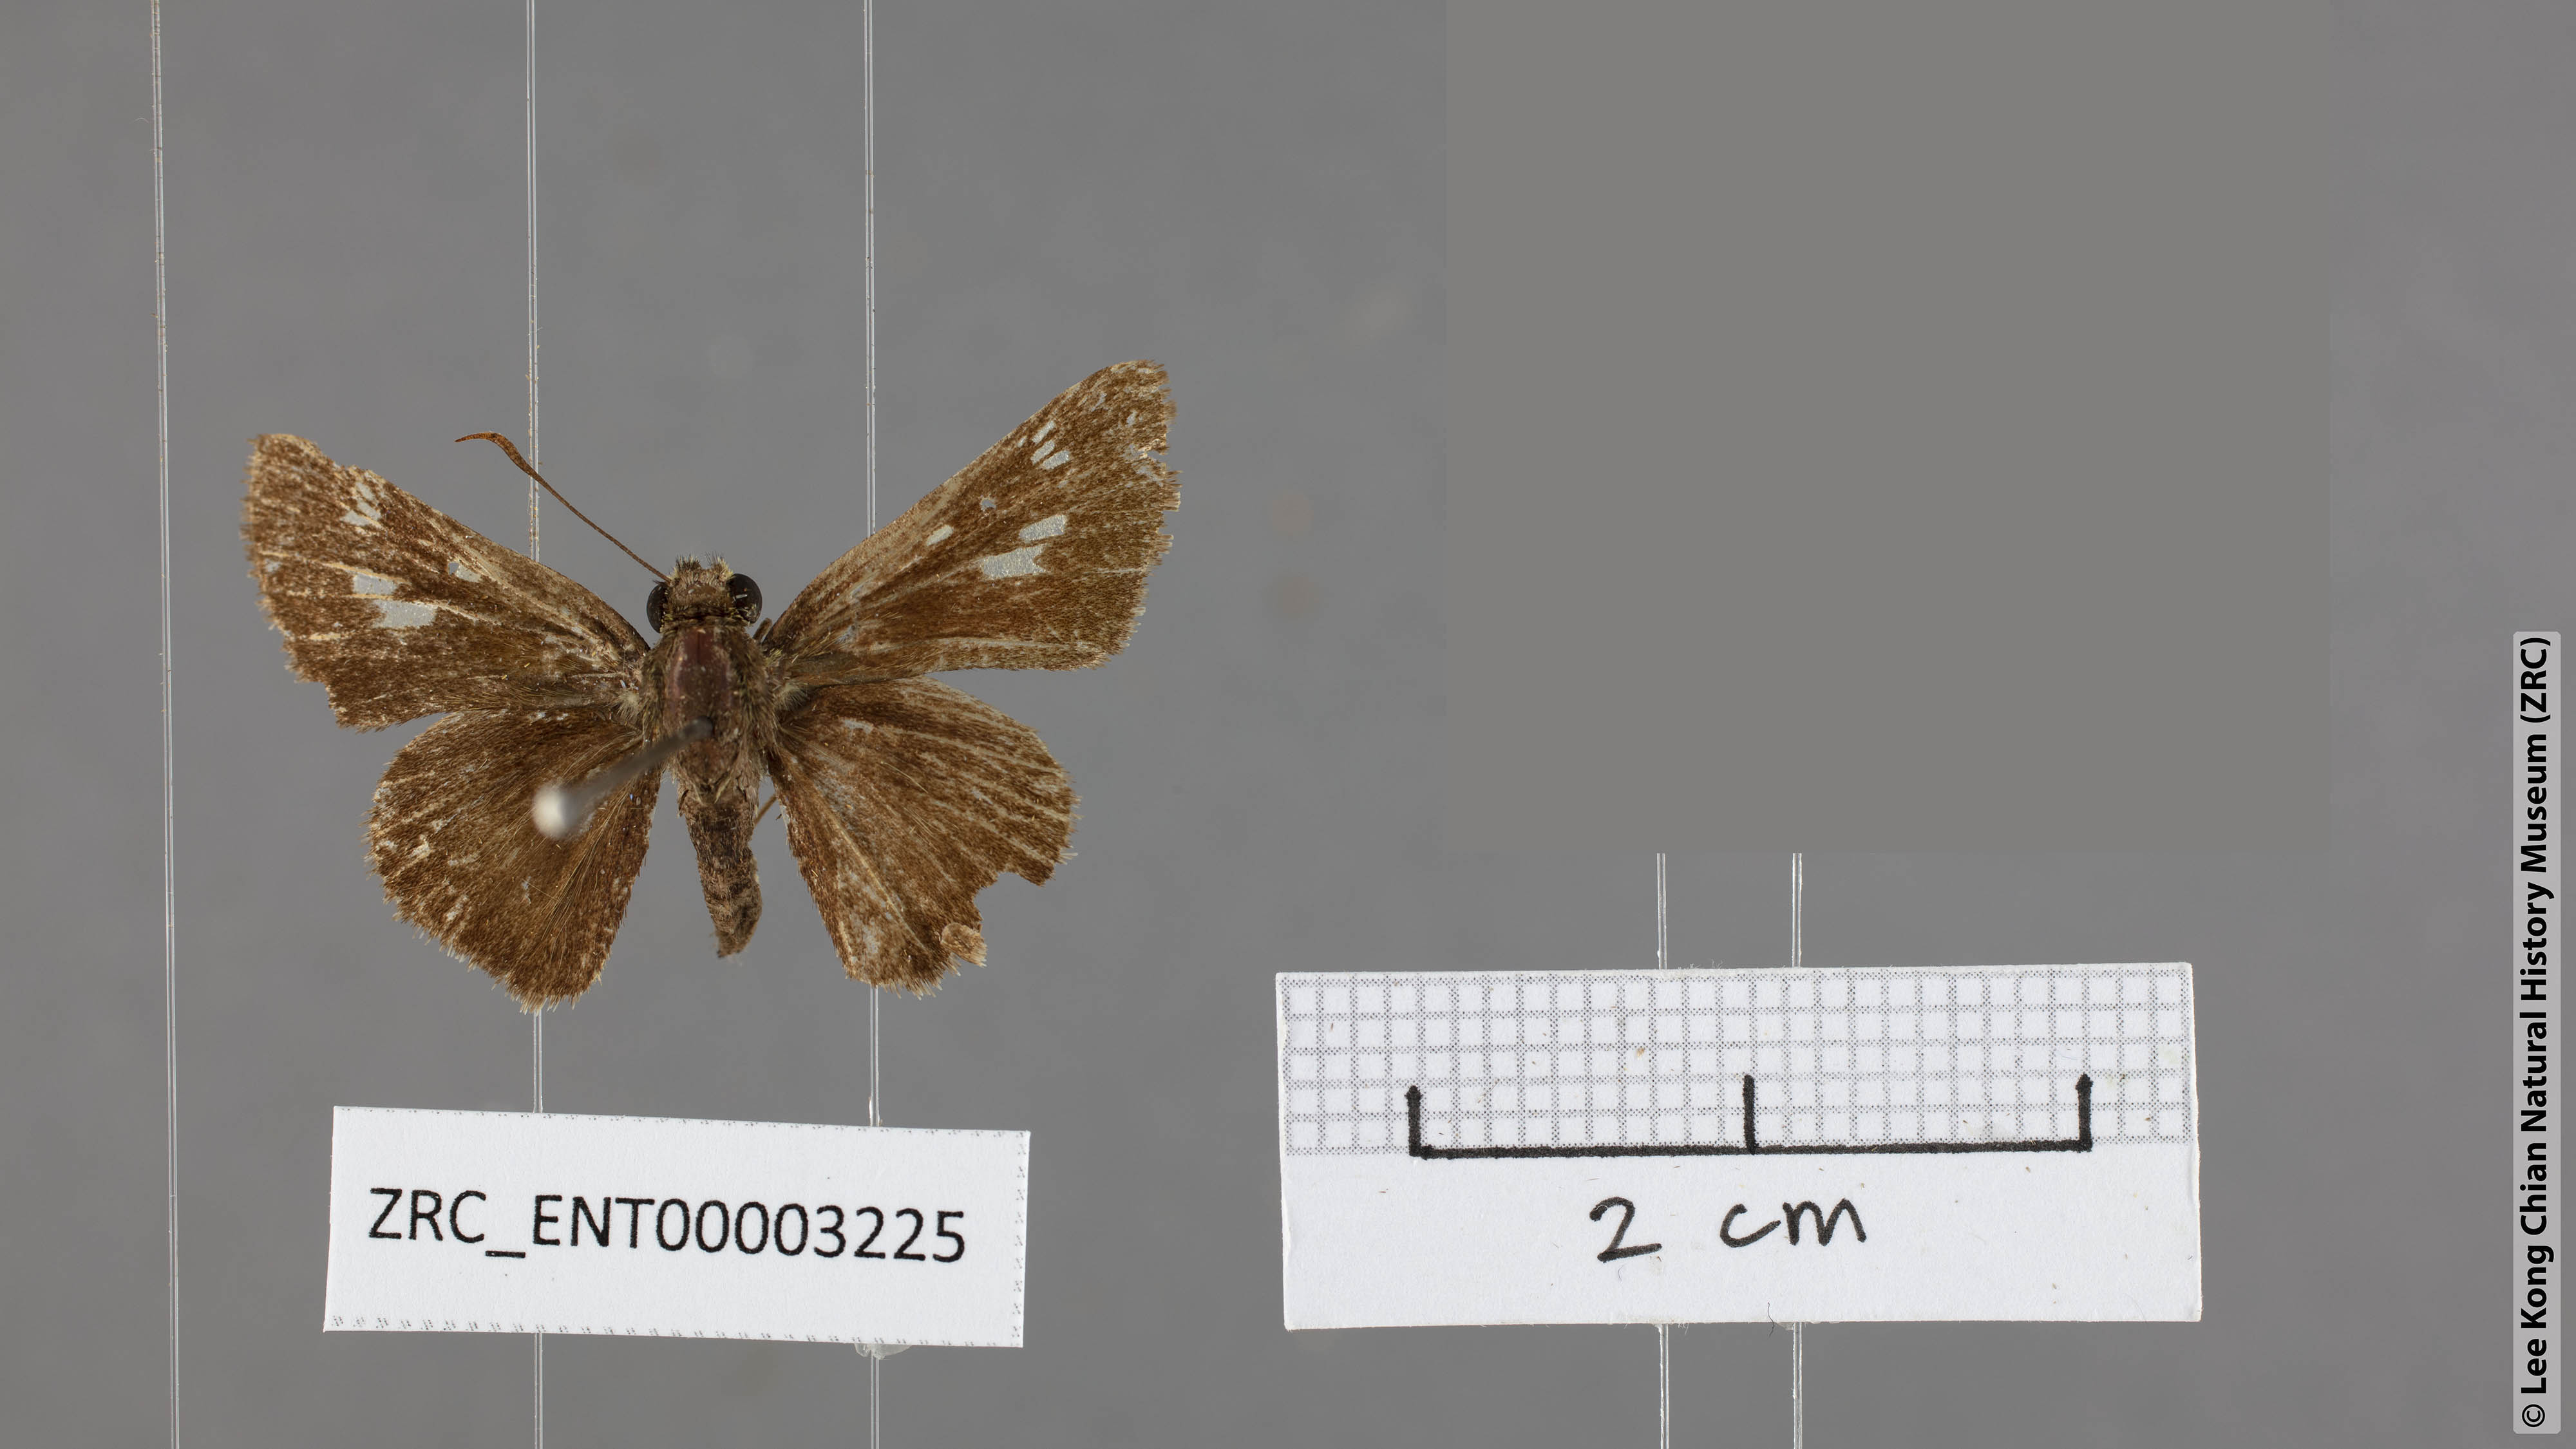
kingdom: Animalia
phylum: Arthropoda
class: Insecta
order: Lepidoptera
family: Hesperiidae
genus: Halpe
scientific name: Halpe flava
